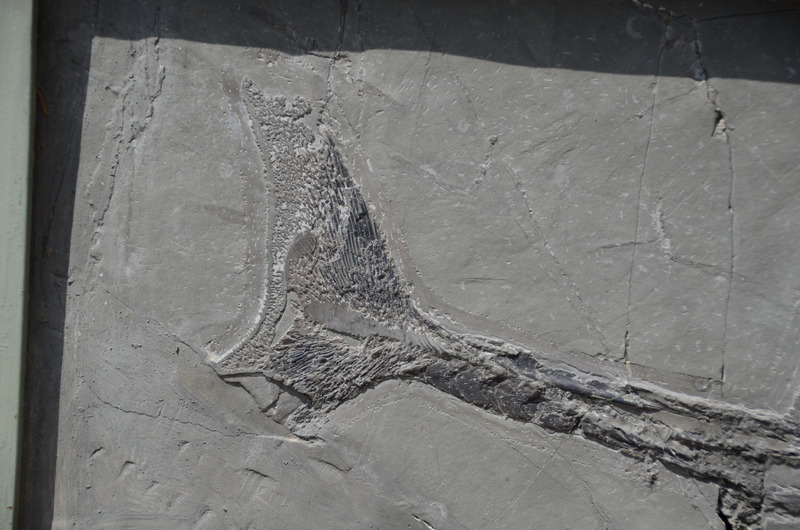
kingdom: Animalia
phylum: Chordata
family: Saurichthyidae
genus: Saurichthys
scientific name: Saurichthys Giffonus deperditus
